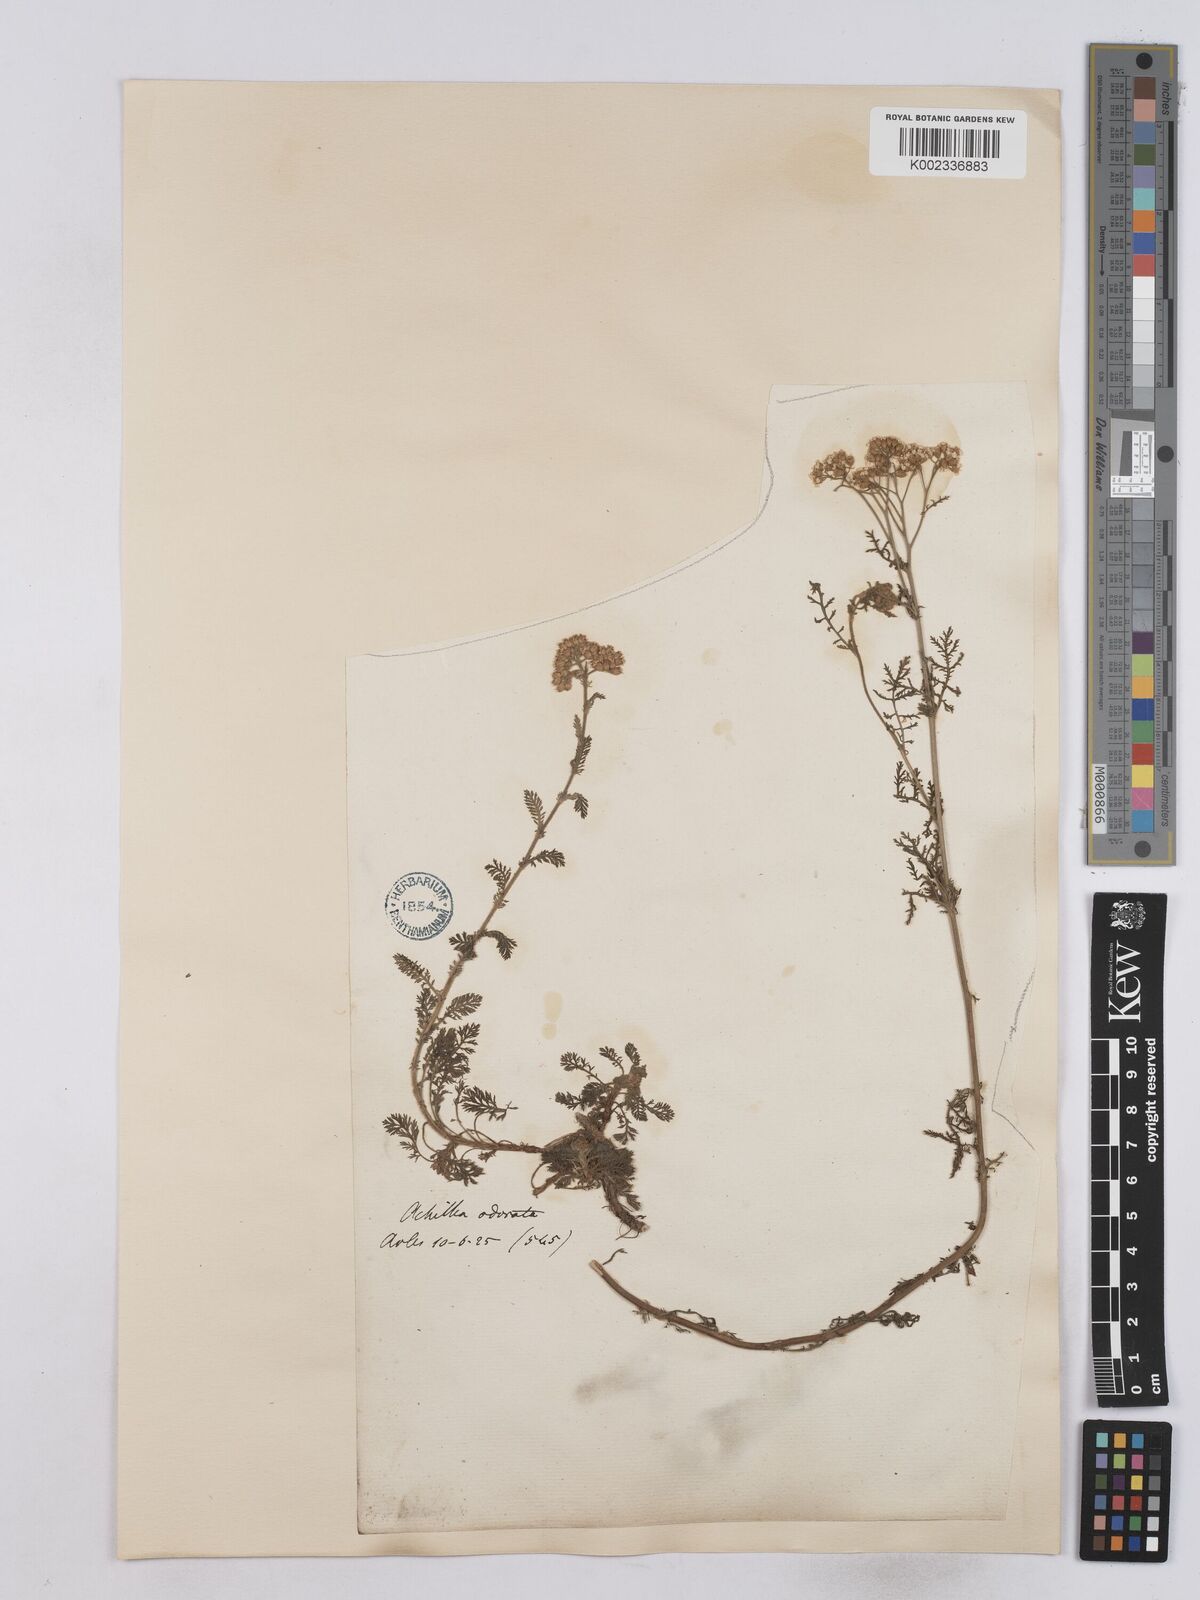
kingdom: Plantae
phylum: Tracheophyta
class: Magnoliopsida
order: Asterales
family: Asteraceae
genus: Achillea
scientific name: Achillea odorata
